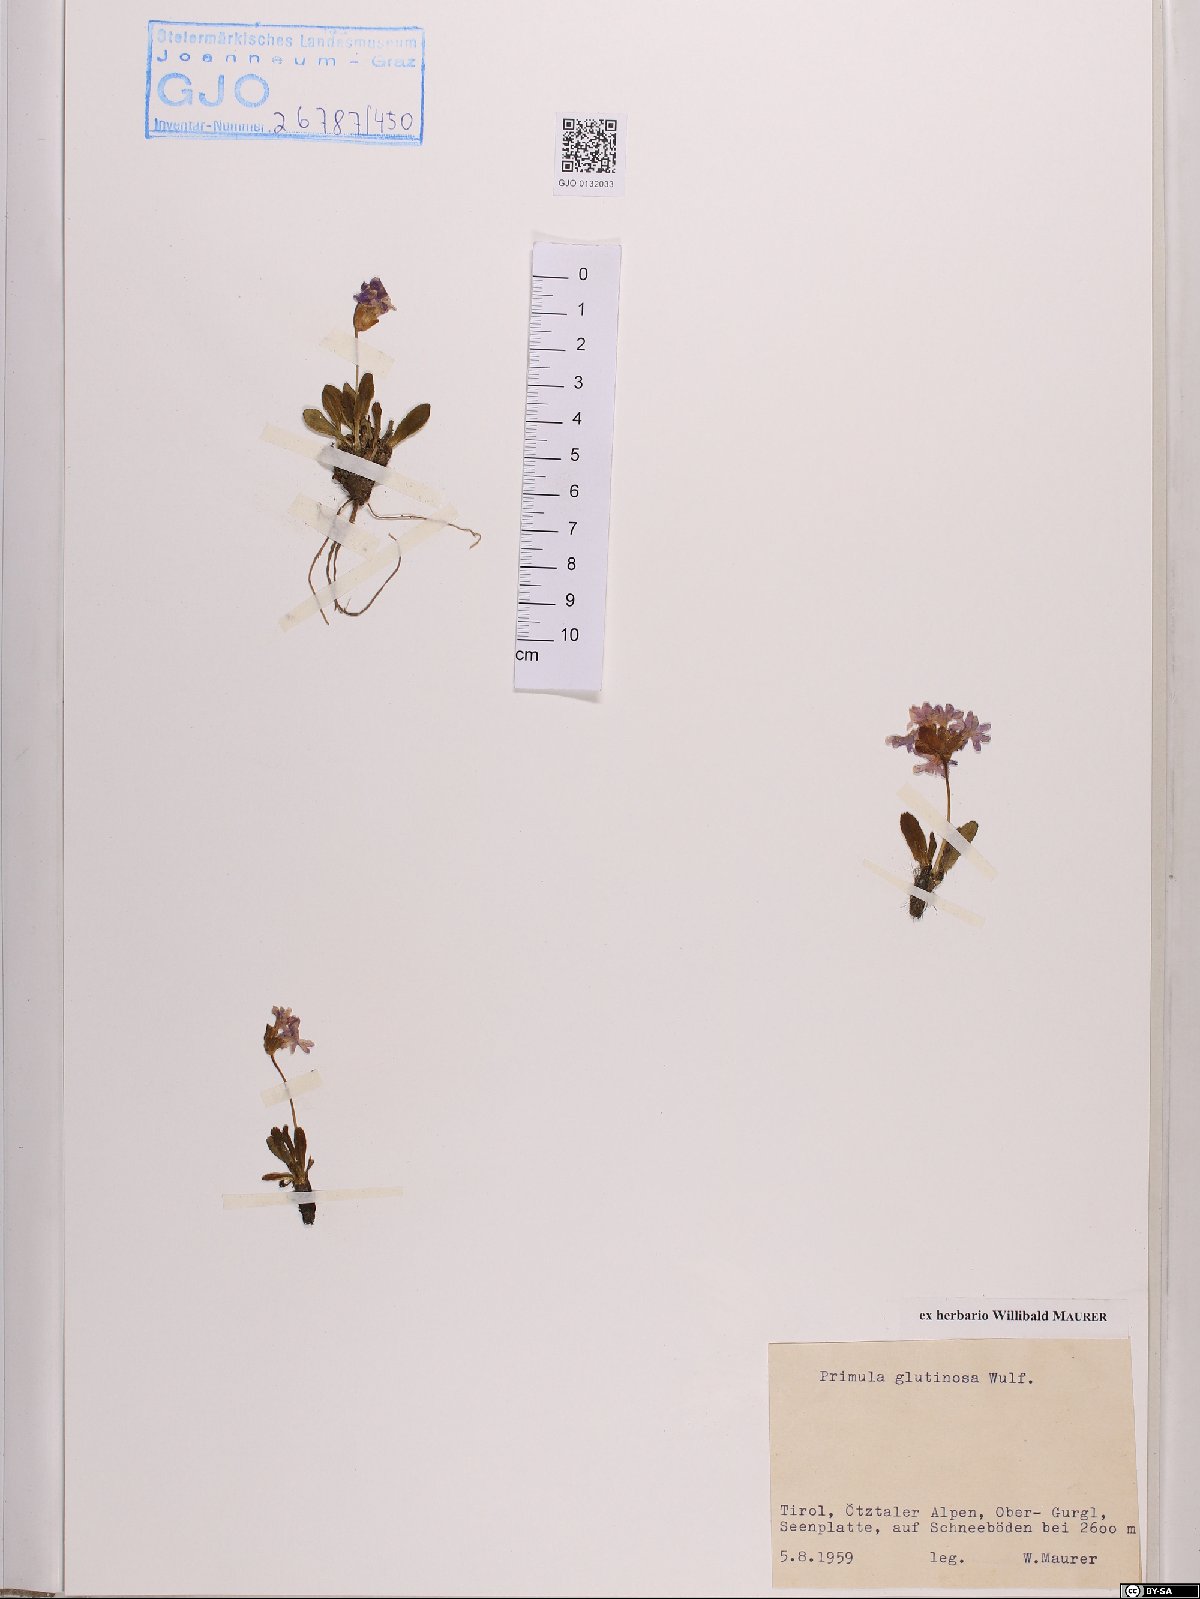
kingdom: Plantae
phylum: Tracheophyta
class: Magnoliopsida
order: Ericales
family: Primulaceae
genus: Primula
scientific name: Primula glutinosa
